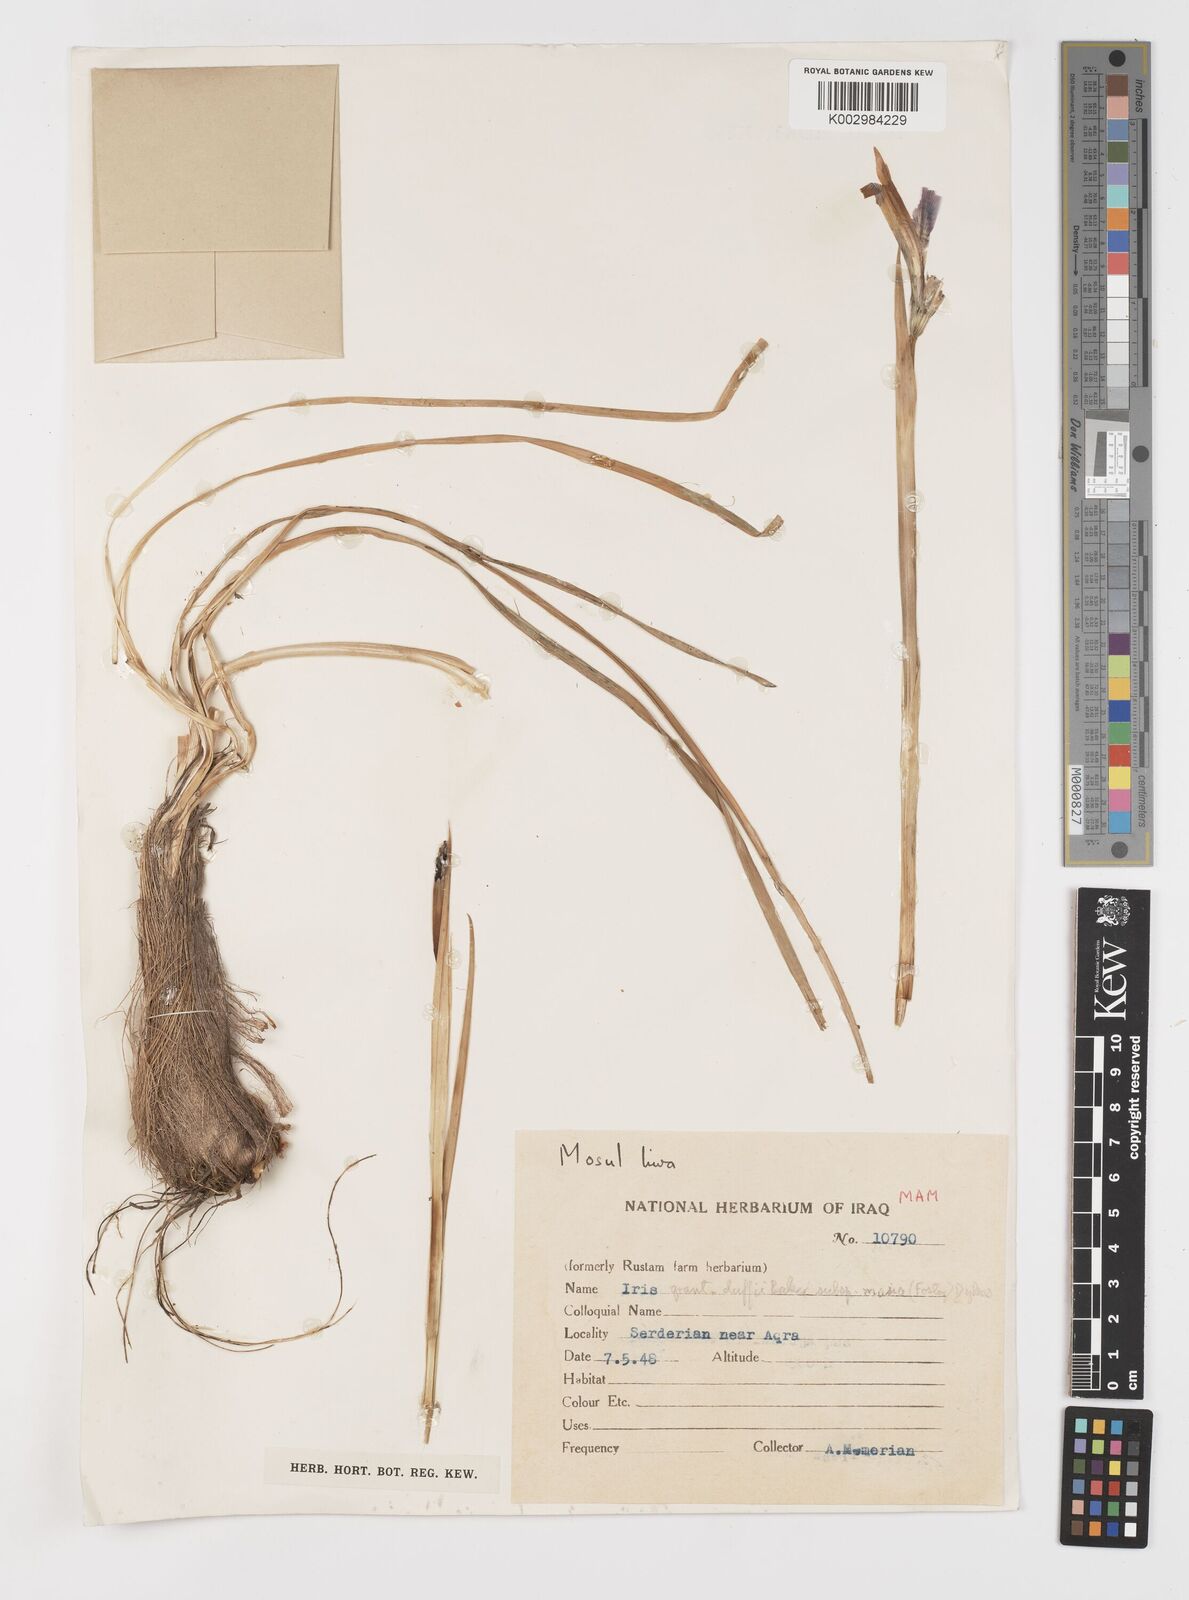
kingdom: Plantae
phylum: Tracheophyta
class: Liliopsida
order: Asparagales
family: Iridaceae
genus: Iris
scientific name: Iris masiae
